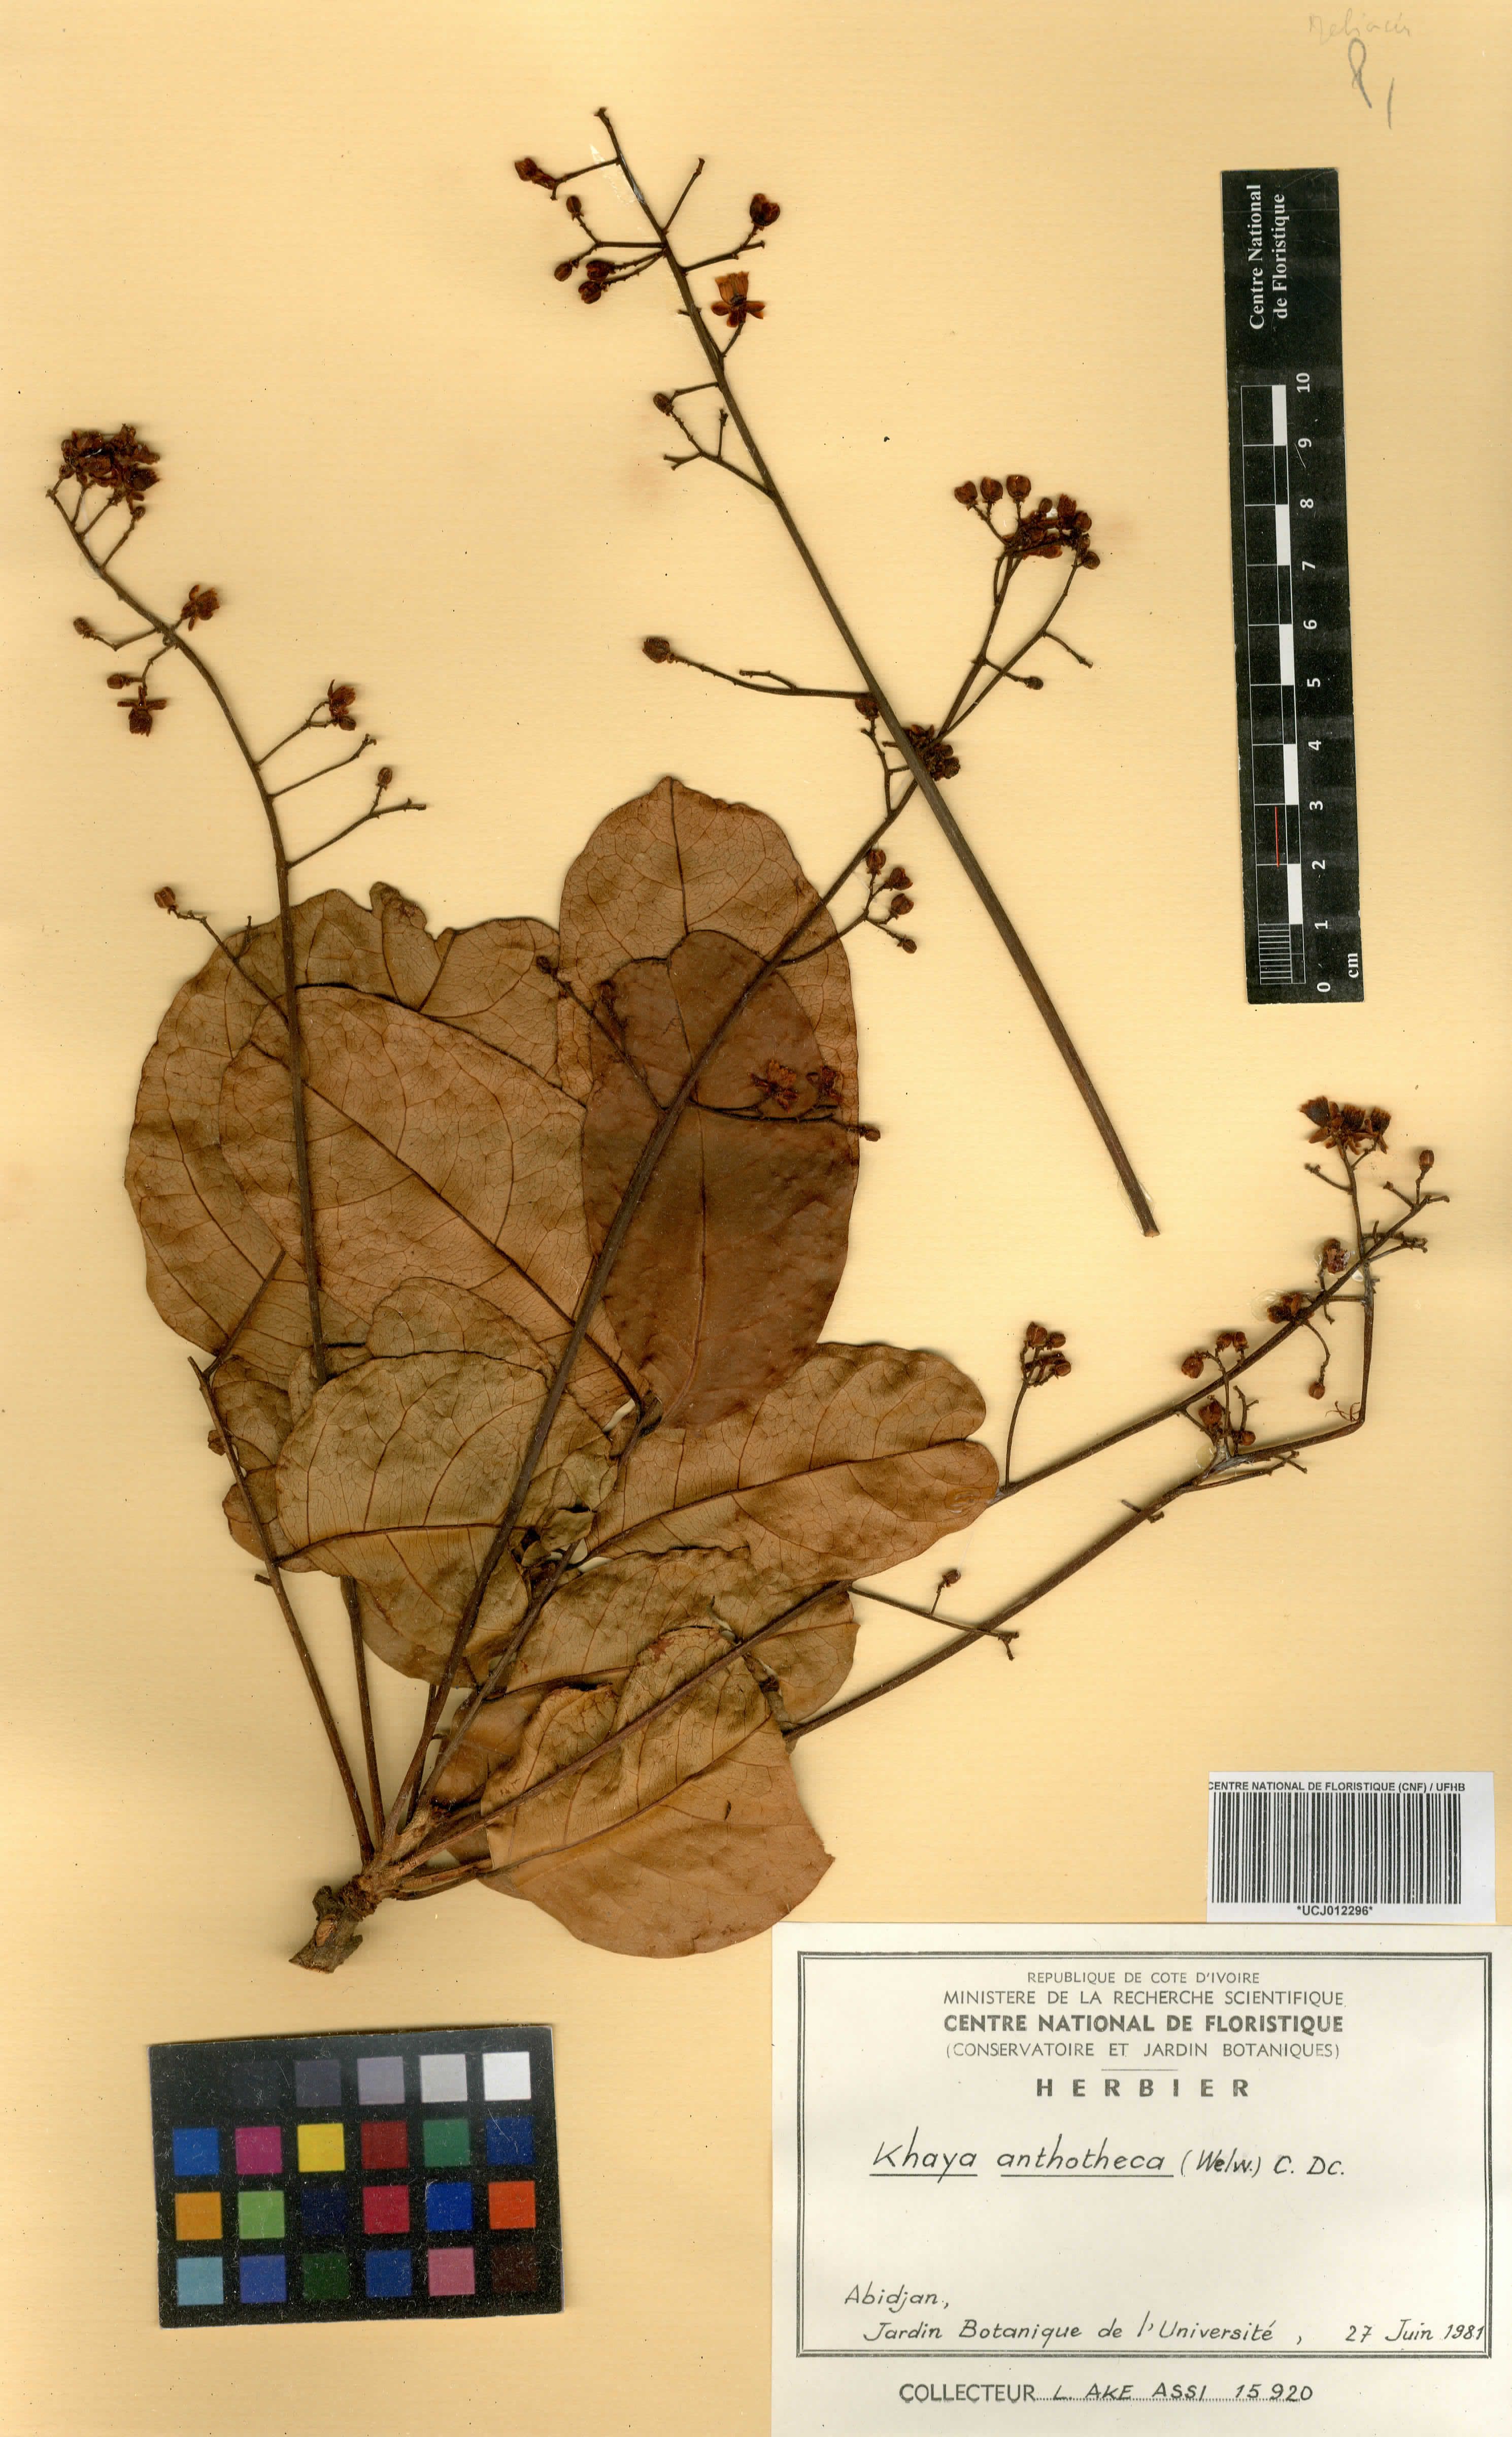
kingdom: Plantae
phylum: Tracheophyta
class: Magnoliopsida
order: Sapindales
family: Meliaceae
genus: Khaya
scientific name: Khaya anthotheca
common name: Nyasaland mahogany
